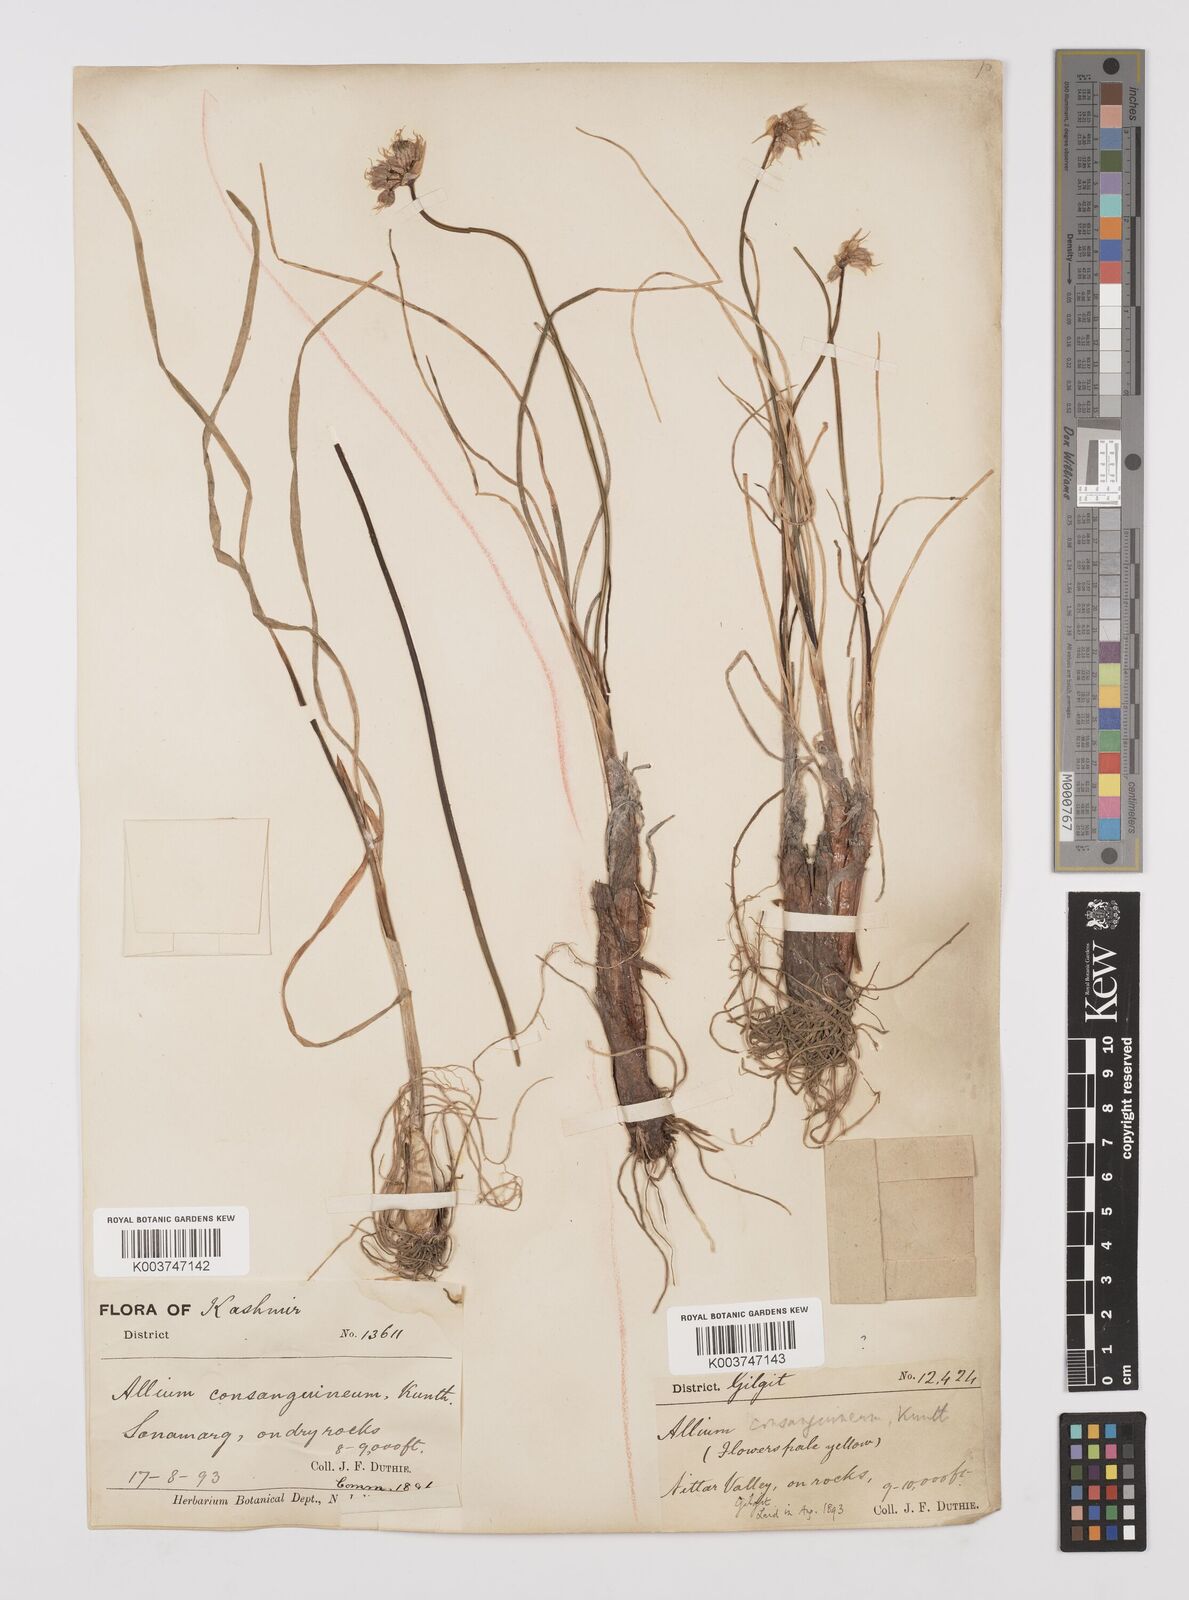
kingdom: Plantae
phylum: Tracheophyta
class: Liliopsida
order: Asparagales
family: Amaryllidaceae
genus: Allium
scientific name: Allium consanguineum
